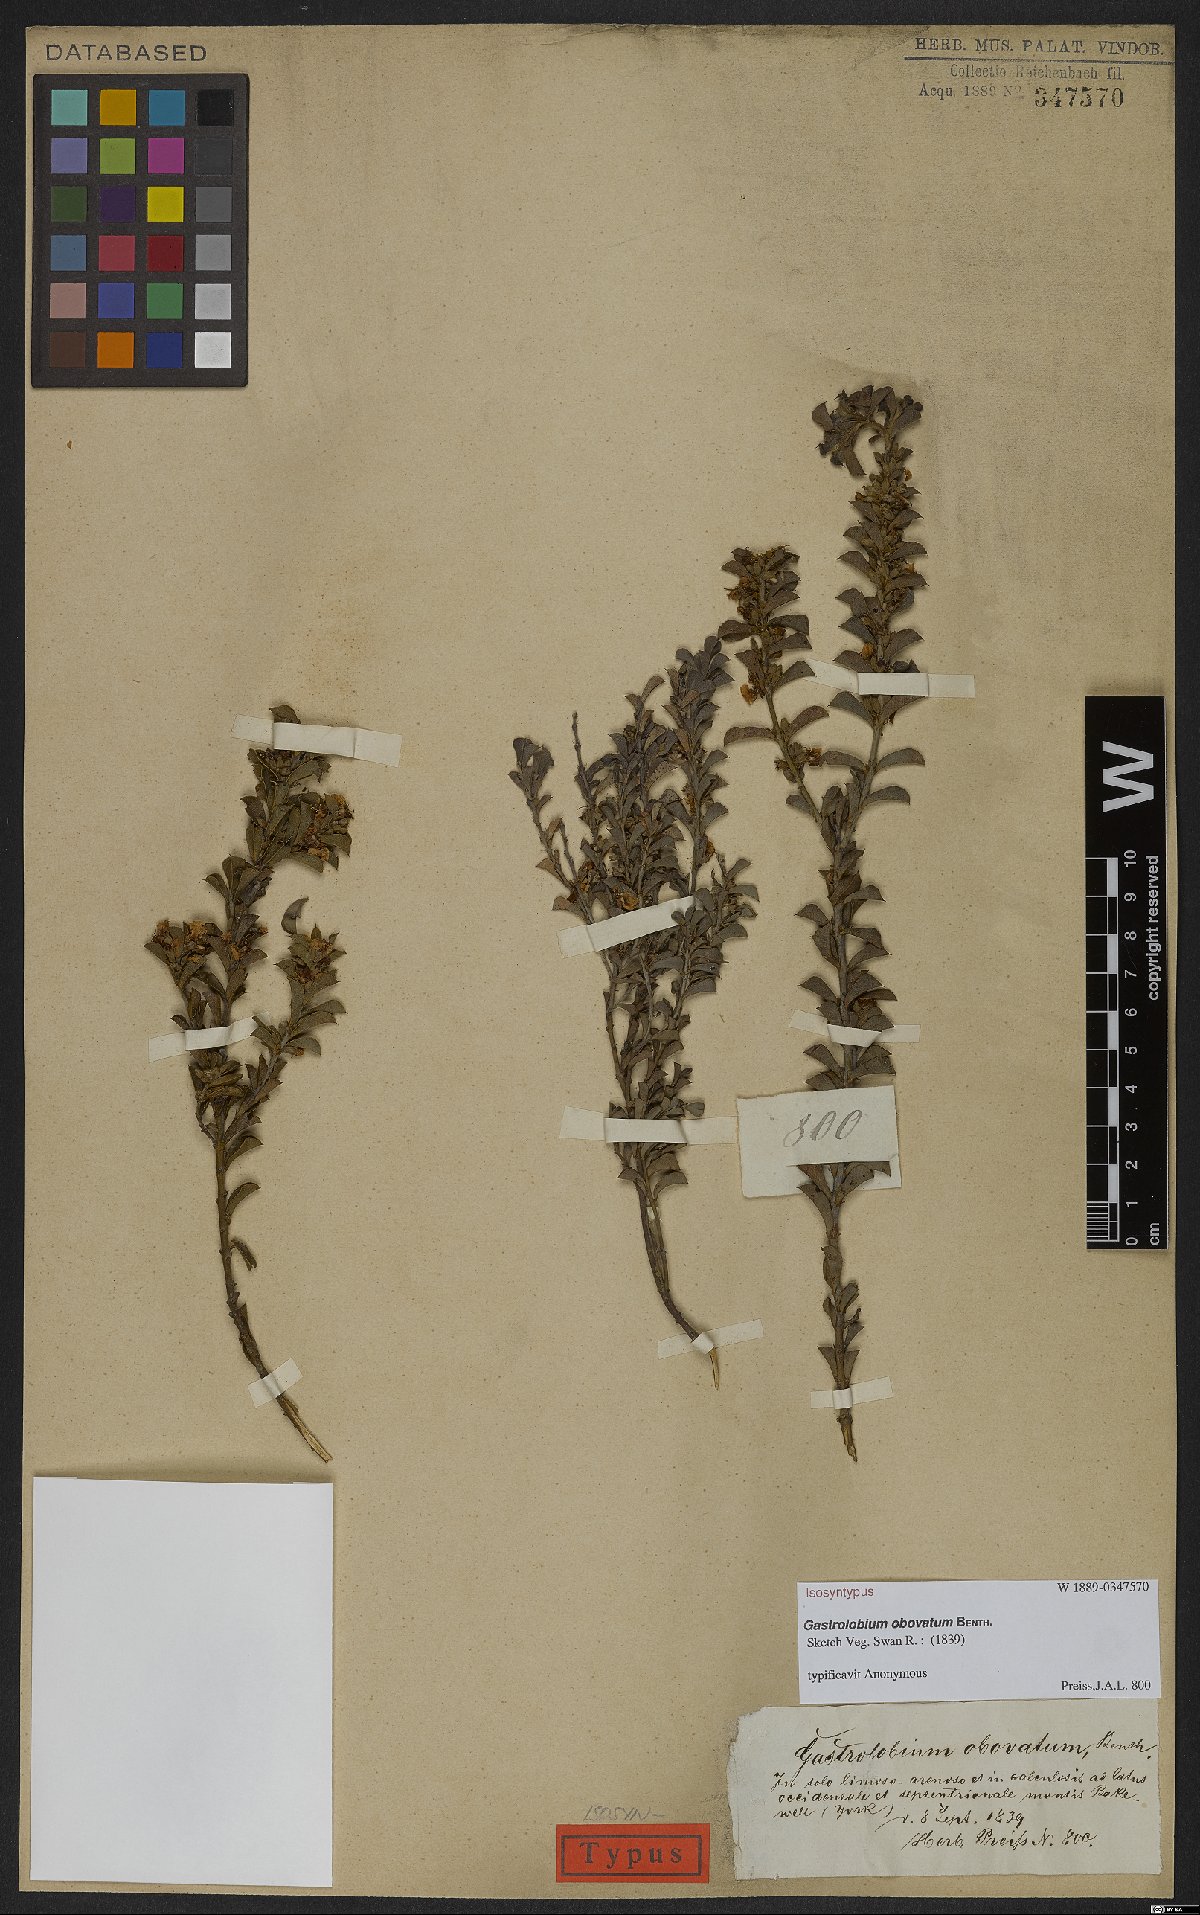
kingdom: Plantae
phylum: Tracheophyta
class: Magnoliopsida
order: Fabales
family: Fabaceae
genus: Gastrolobium
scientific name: Gastrolobium obovatum
